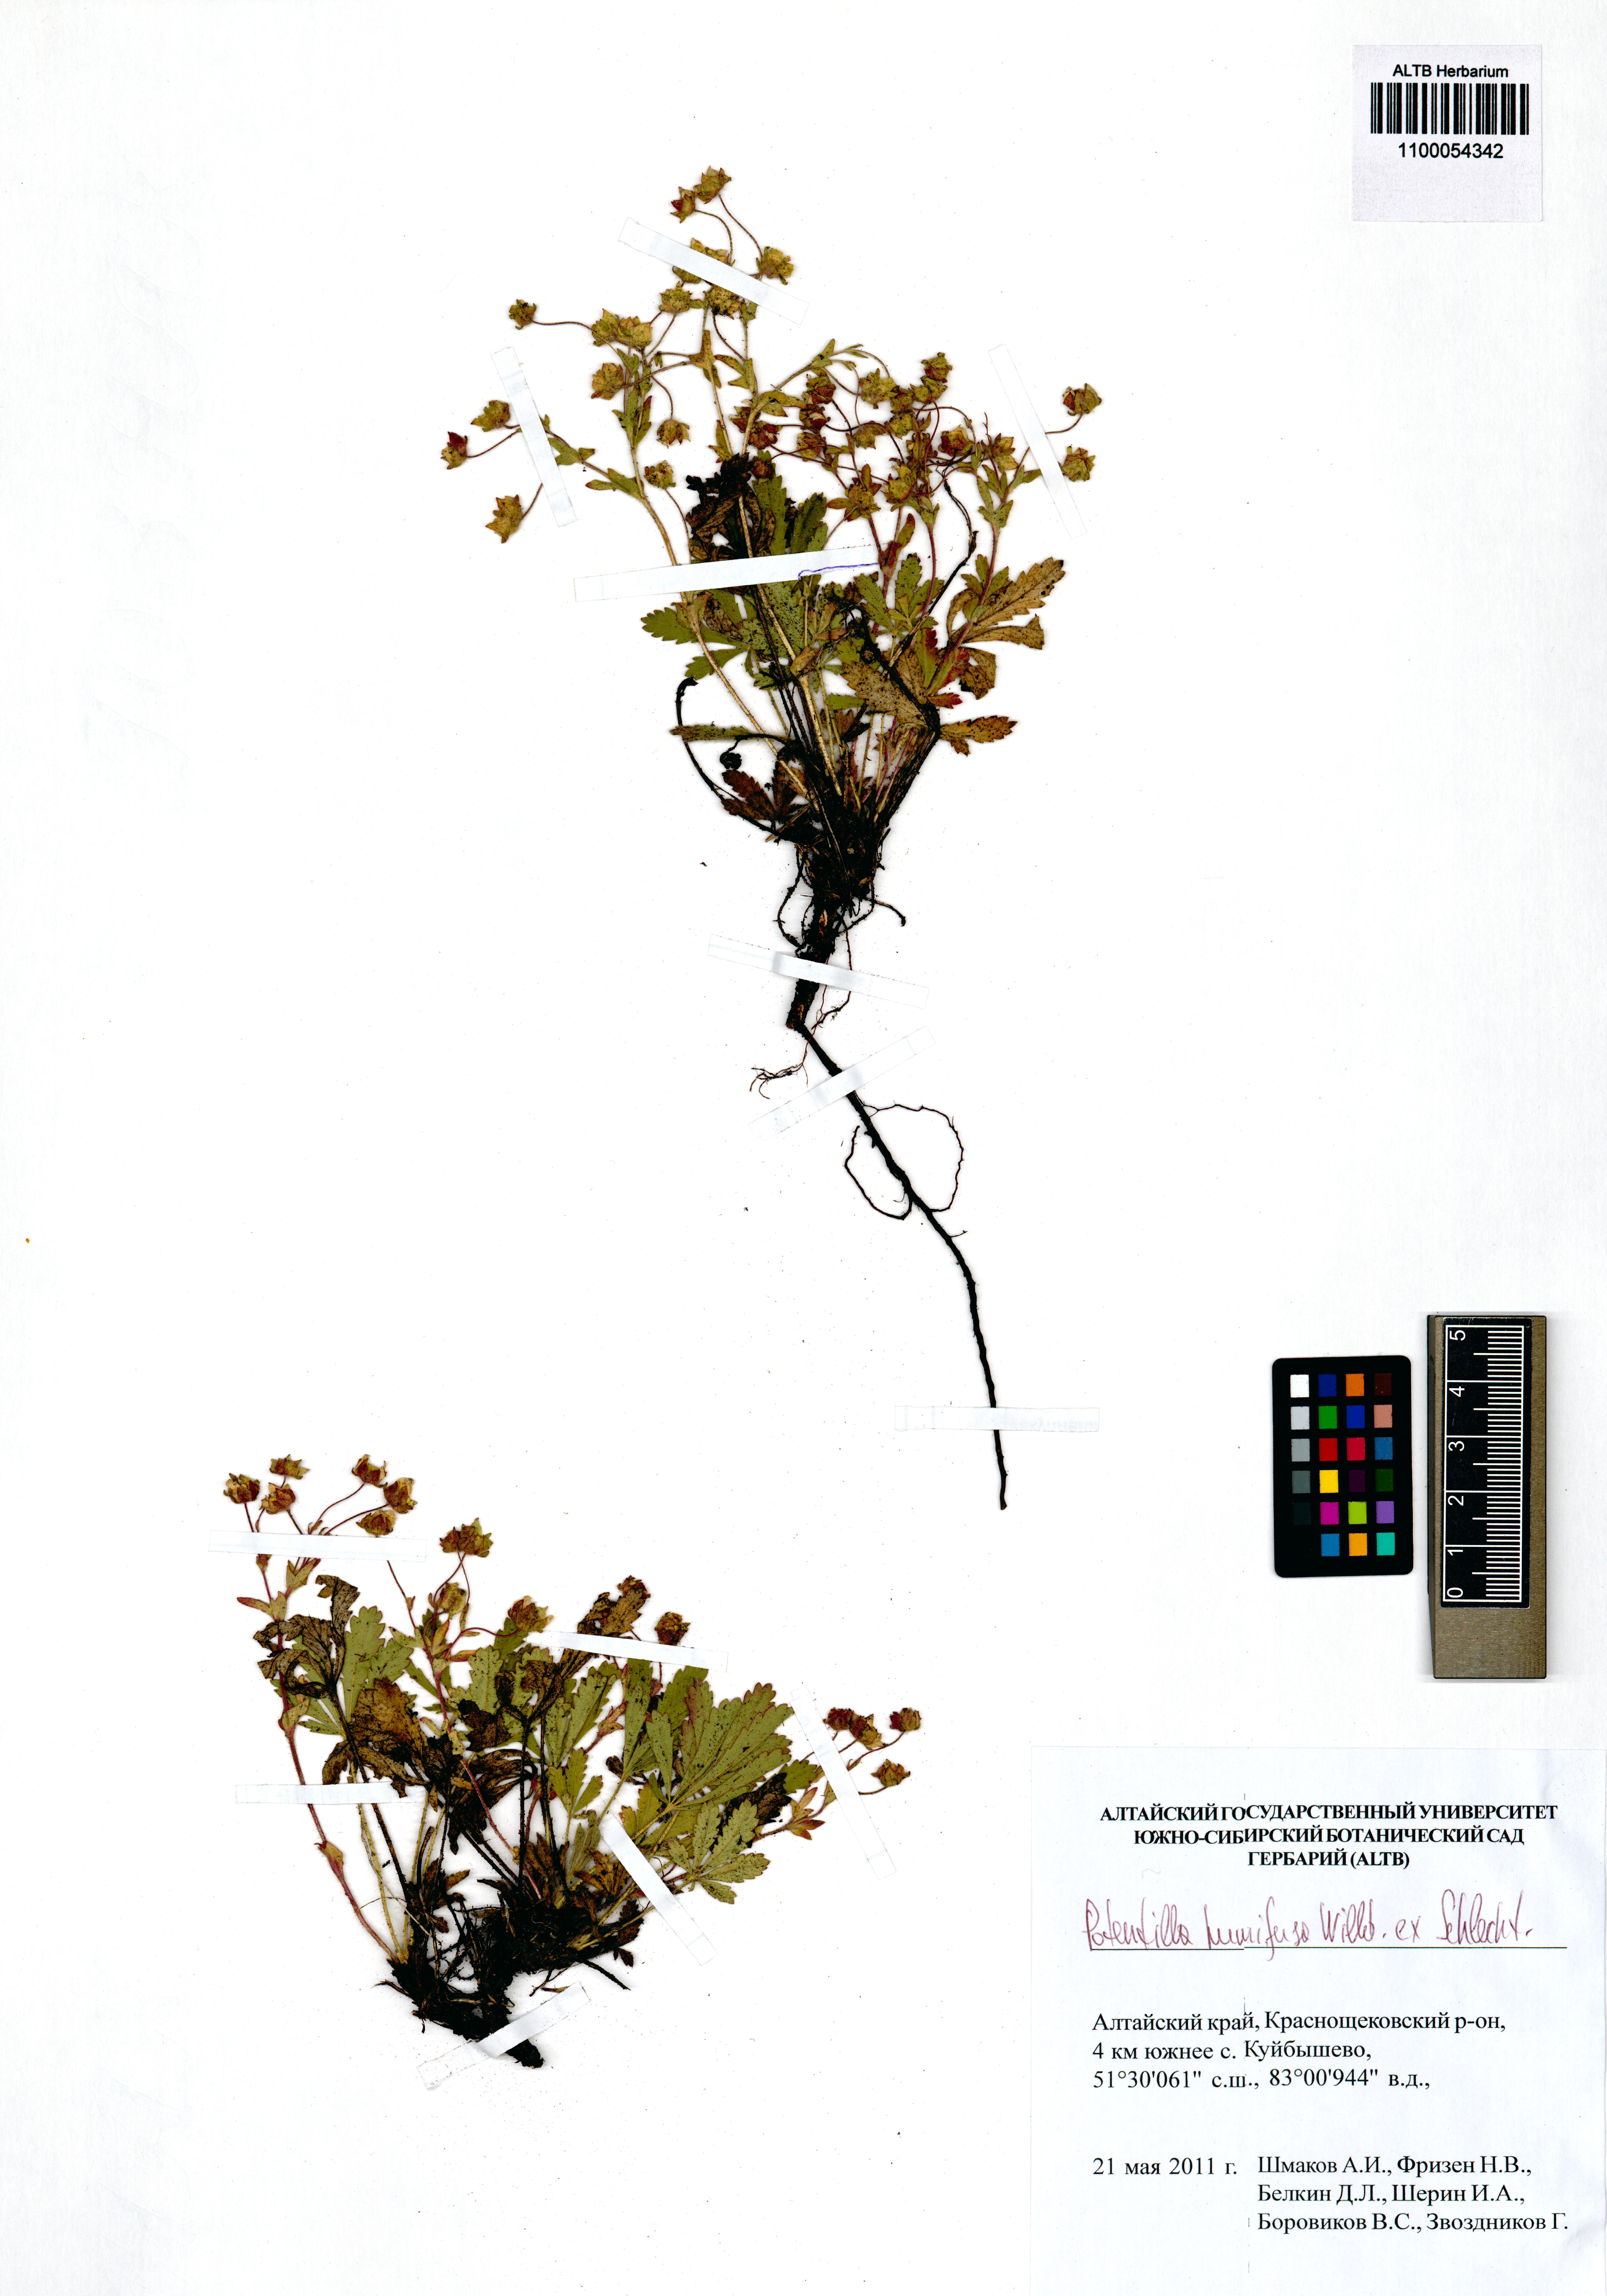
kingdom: Plantae
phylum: Tracheophyta
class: Magnoliopsida
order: Rosales
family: Rosaceae
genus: Potentilla
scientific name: Potentilla humifusa
